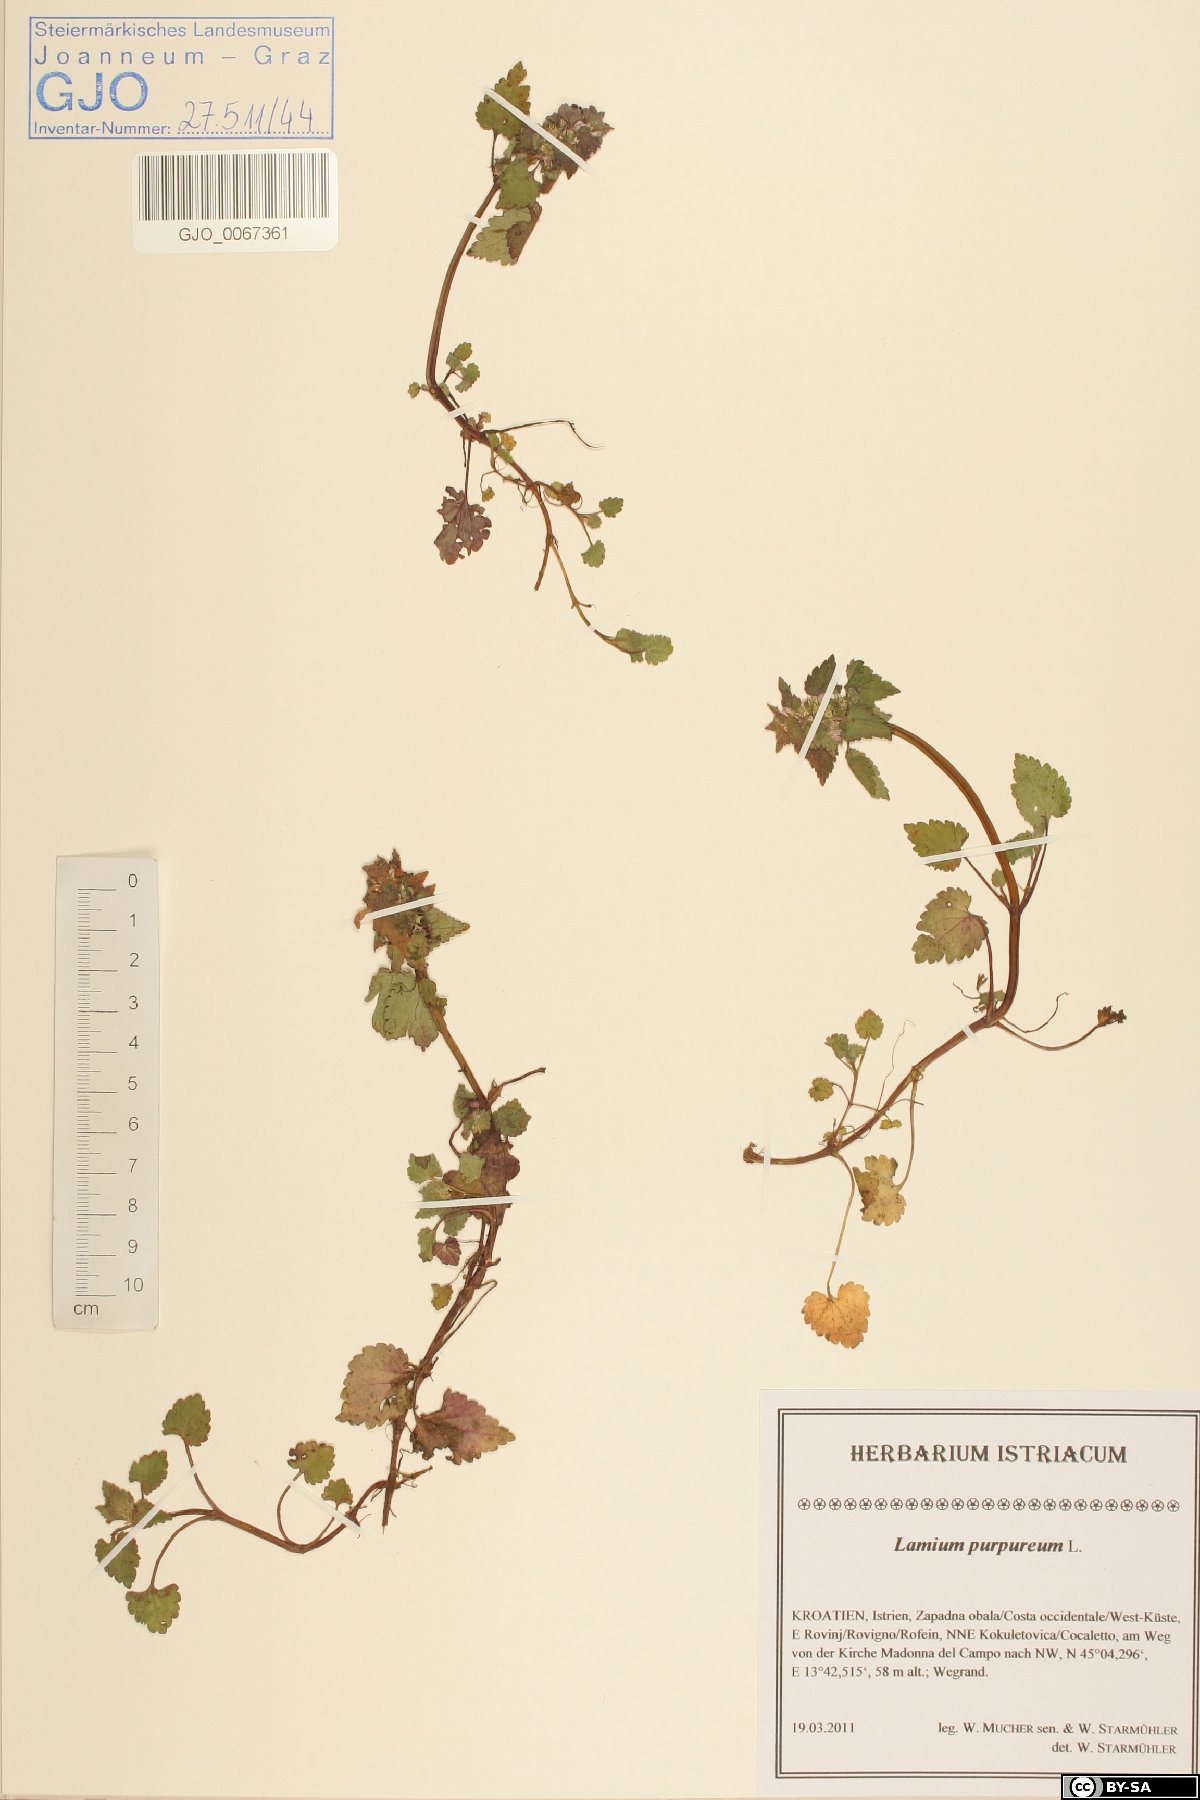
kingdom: Plantae
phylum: Tracheophyta
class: Magnoliopsida
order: Lamiales
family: Lamiaceae
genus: Lamium
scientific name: Lamium purpureum
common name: Red dead-nettle
